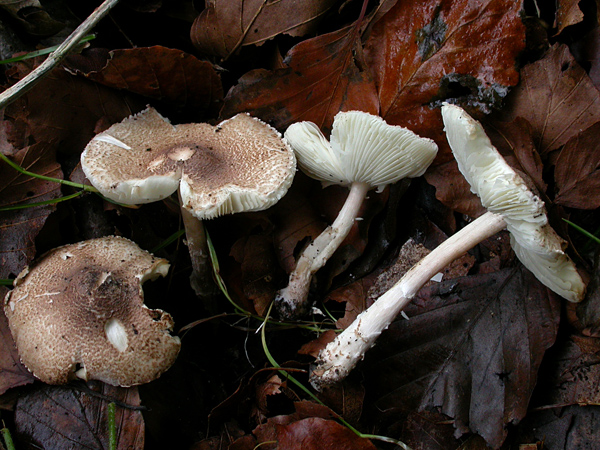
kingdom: Fungi
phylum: Basidiomycota
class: Agaricomycetes
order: Agaricales
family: Agaricaceae
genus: Lepiota
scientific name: Lepiota subgracilis
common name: elegant parasolhat
